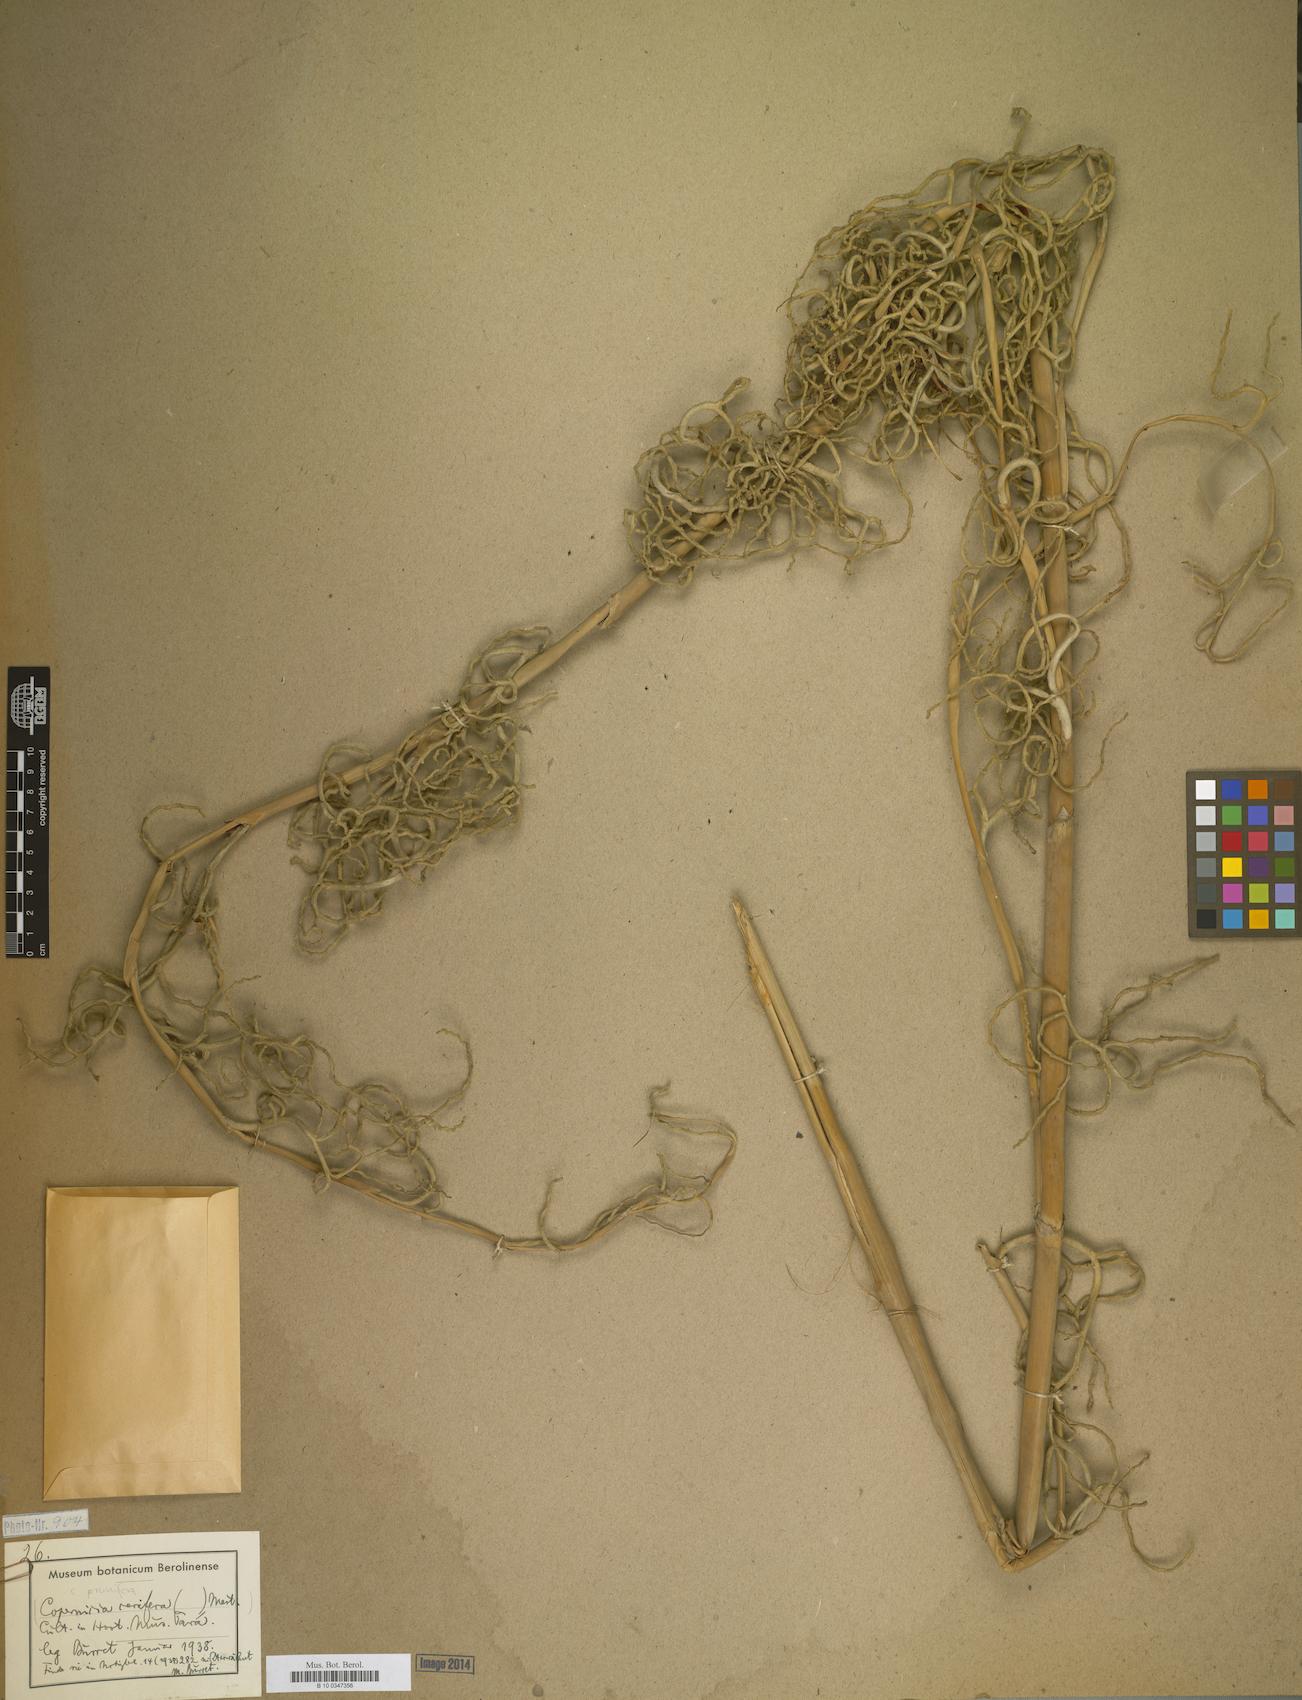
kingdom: Plantae
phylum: Tracheophyta
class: Liliopsida
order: Arecales
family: Arecaceae
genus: Copernicia
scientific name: Copernicia
